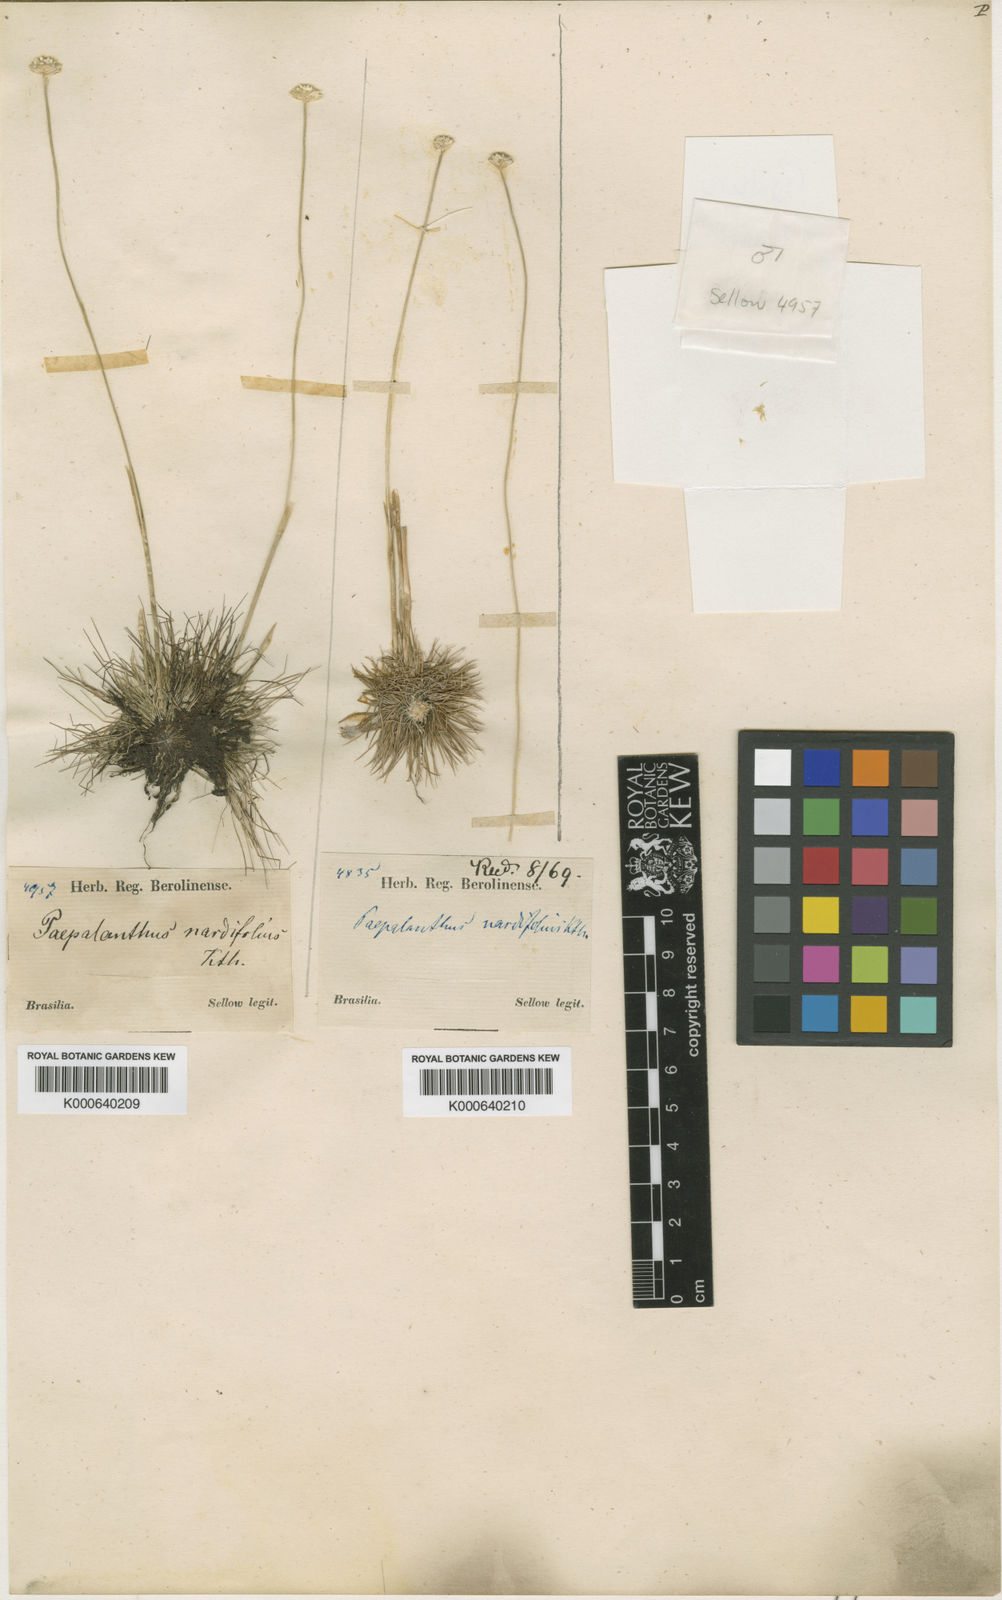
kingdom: Plantae
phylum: Tracheophyta
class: Liliopsida
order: Poales
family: Eriocaulaceae
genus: Syngonanthus
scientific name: Syngonanthus fischerianus
